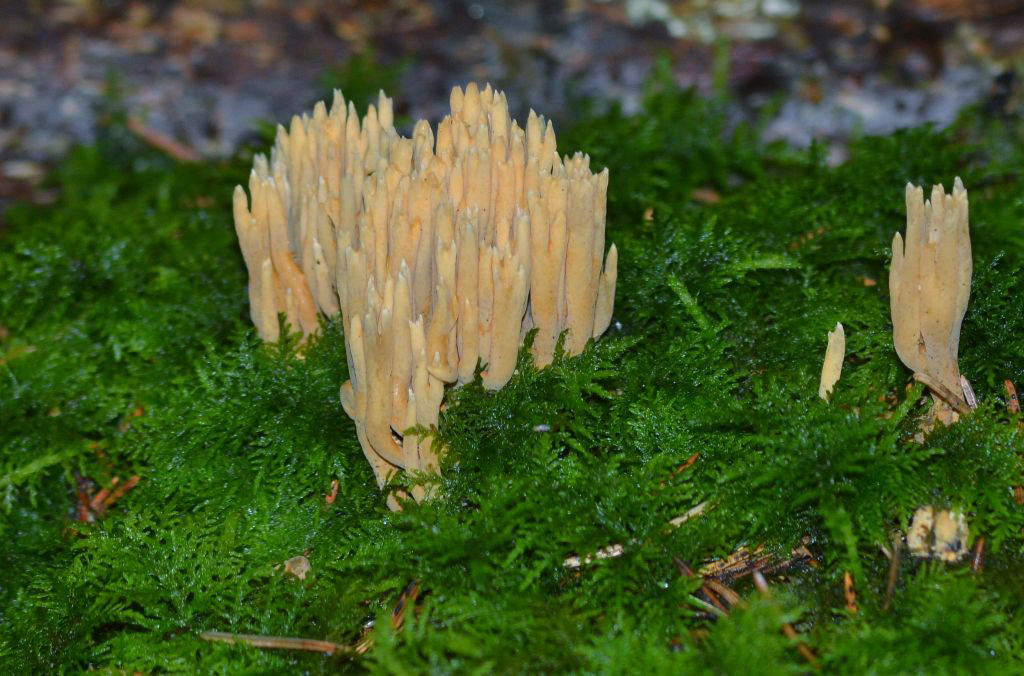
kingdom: Fungi
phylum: Basidiomycota
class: Agaricomycetes
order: Gomphales
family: Gomphaceae
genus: Ramaria
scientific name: Ramaria apiculata
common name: grøntoppet koralsvamp
